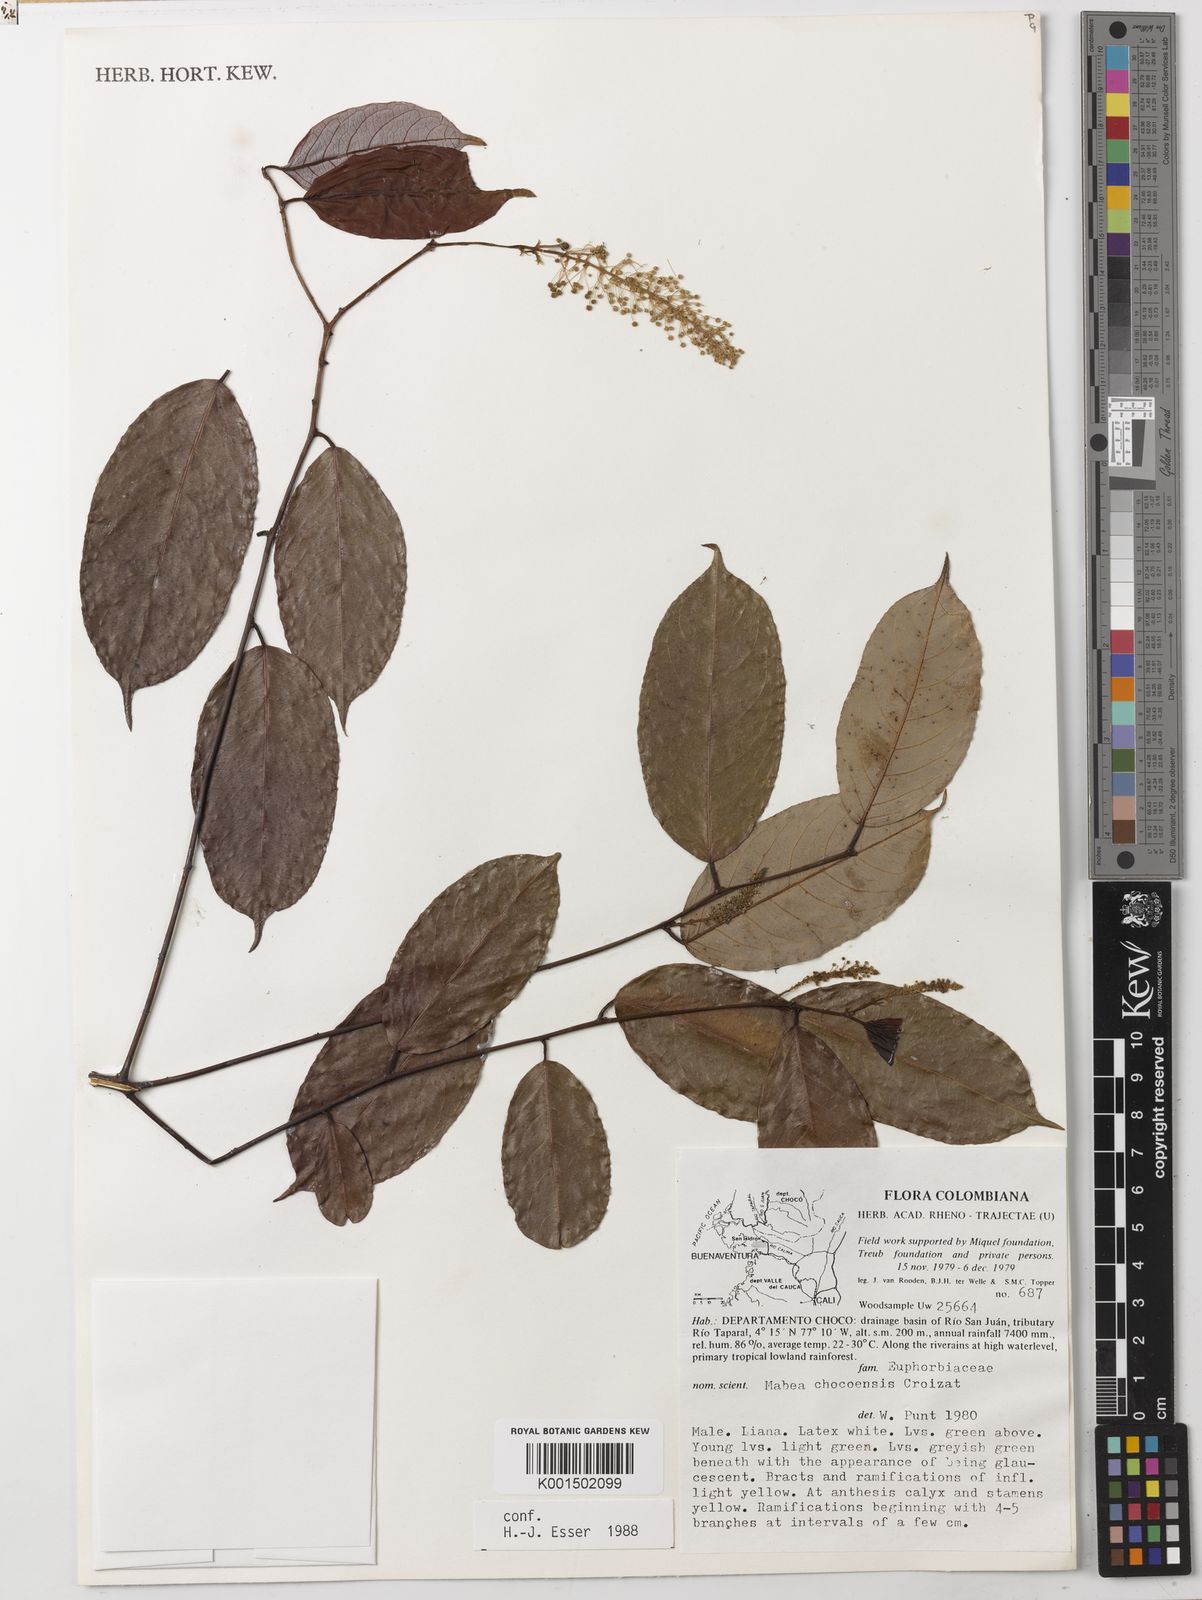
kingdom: Plantae
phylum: Tracheophyta
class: Magnoliopsida
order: Malpighiales
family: Euphorbiaceae
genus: Mabea
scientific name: Mabea chocoensis
